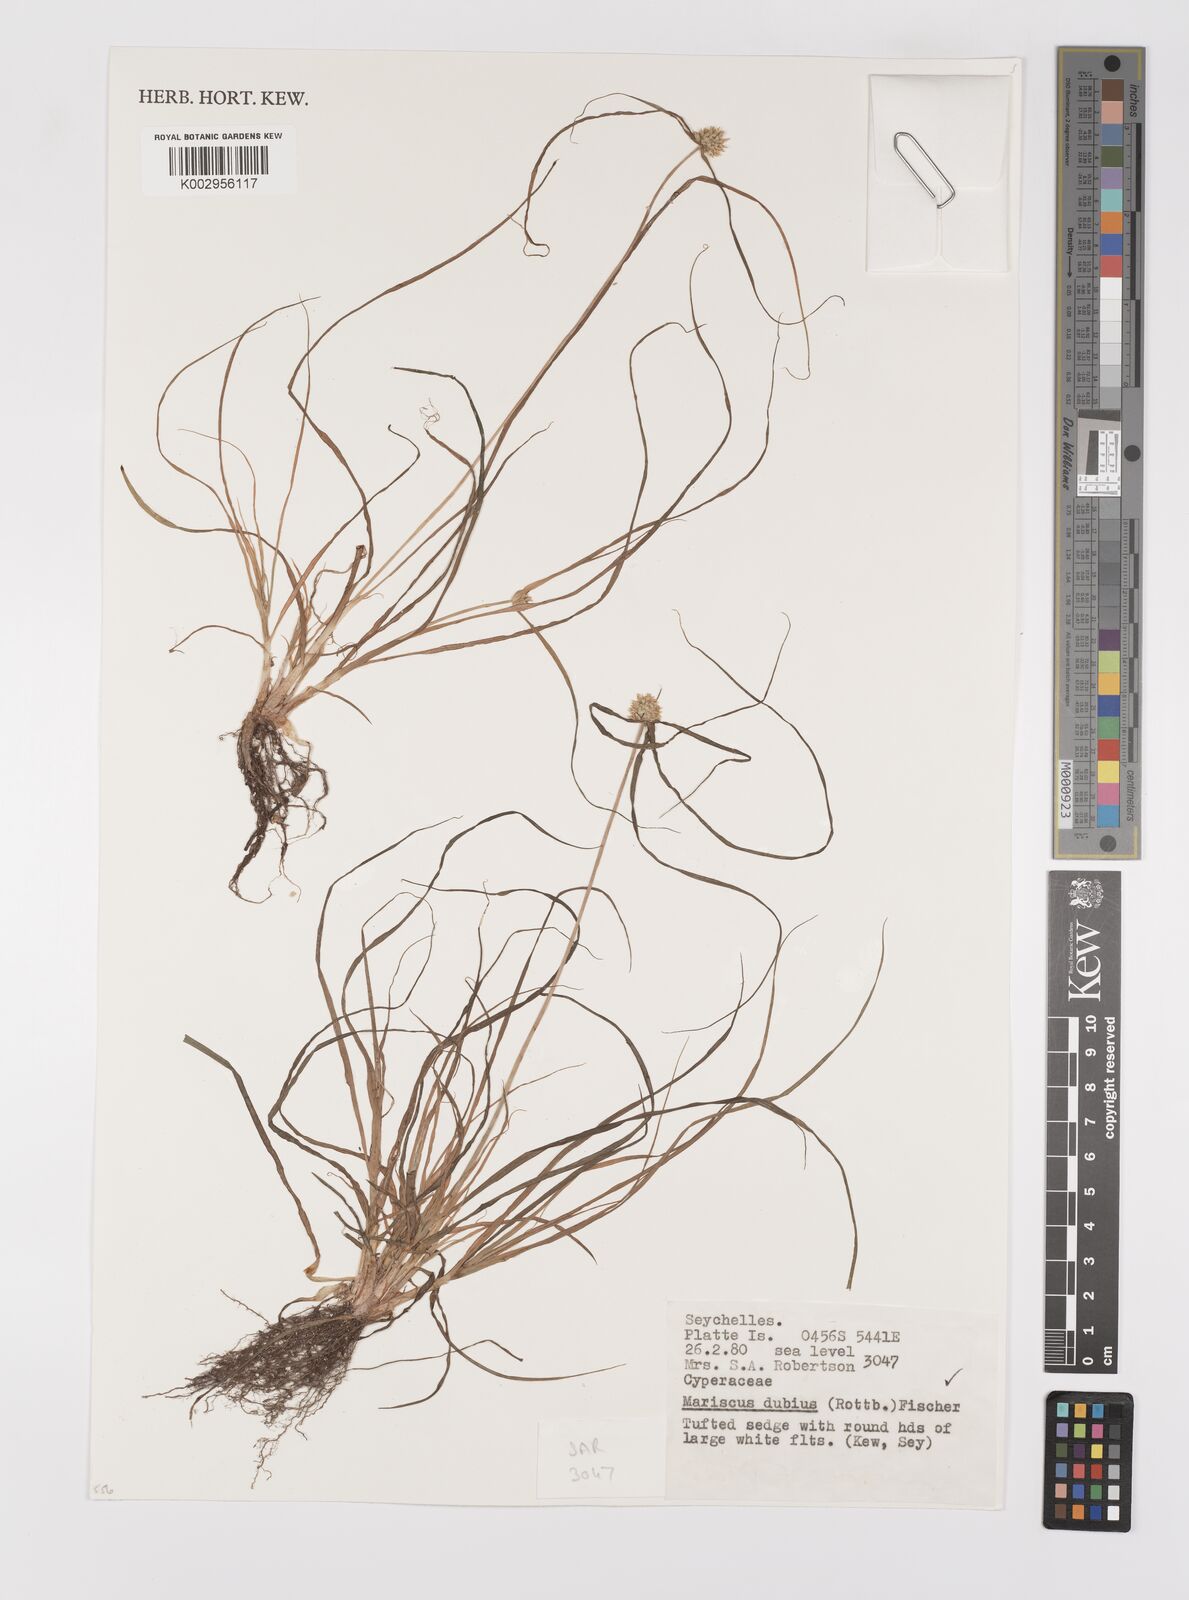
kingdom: Plantae
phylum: Tracheophyta
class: Liliopsida
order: Poales
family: Cyperaceae
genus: Cyperus
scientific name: Cyperus dubius
